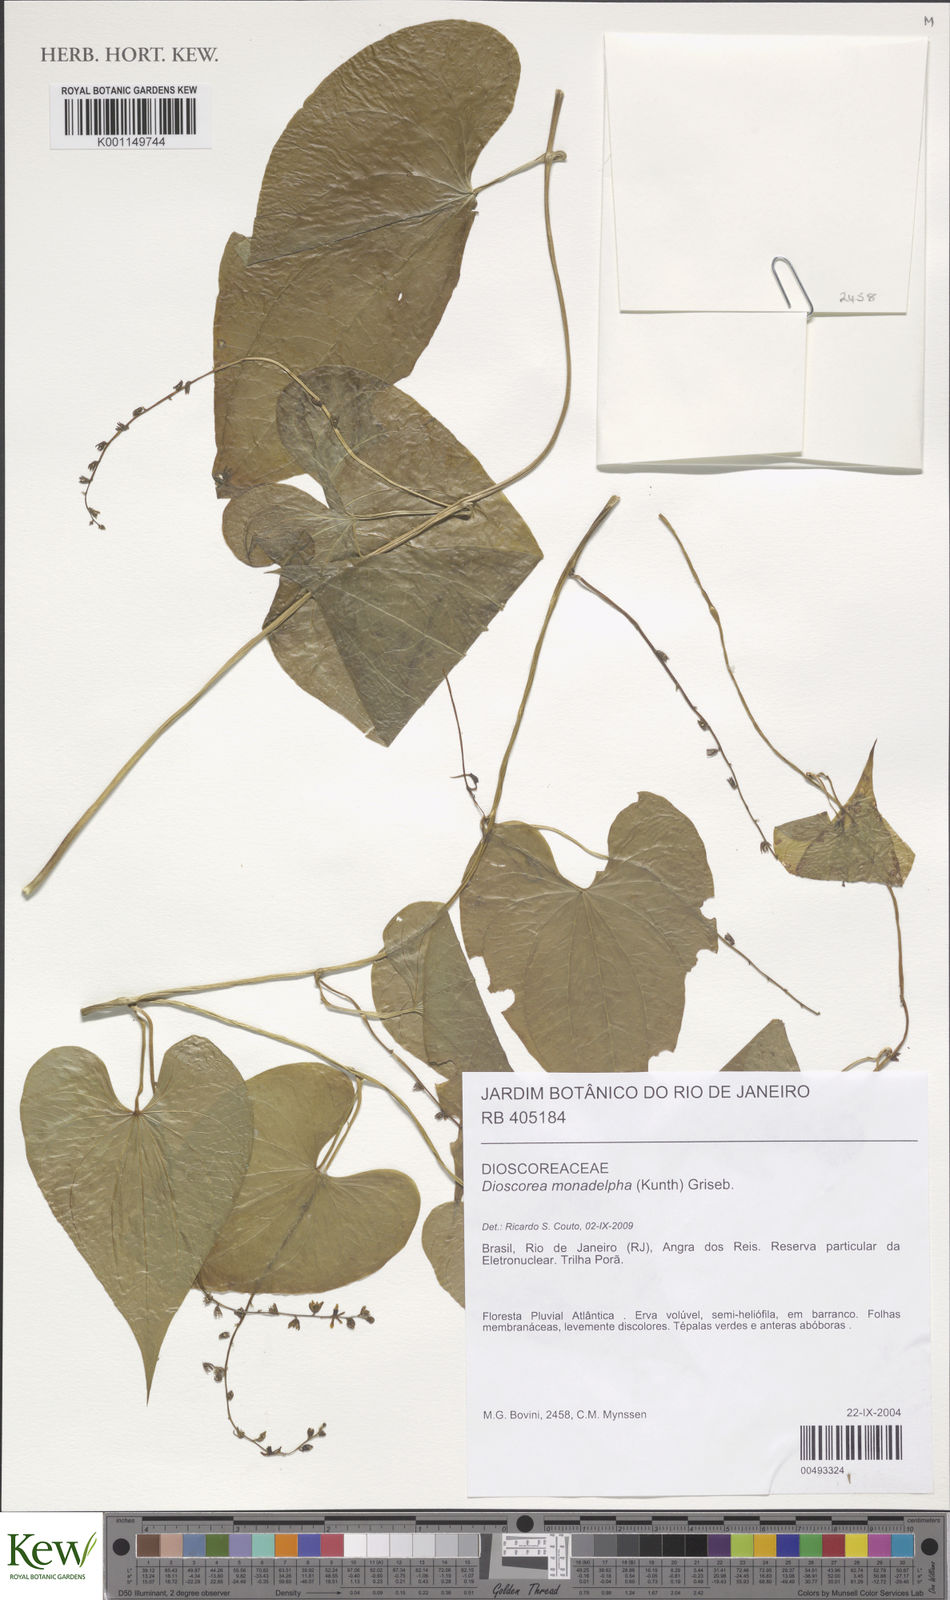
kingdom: Plantae
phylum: Tracheophyta
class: Liliopsida
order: Dioscoreales
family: Dioscoreaceae
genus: Dioscorea
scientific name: Dioscorea monadelpha
